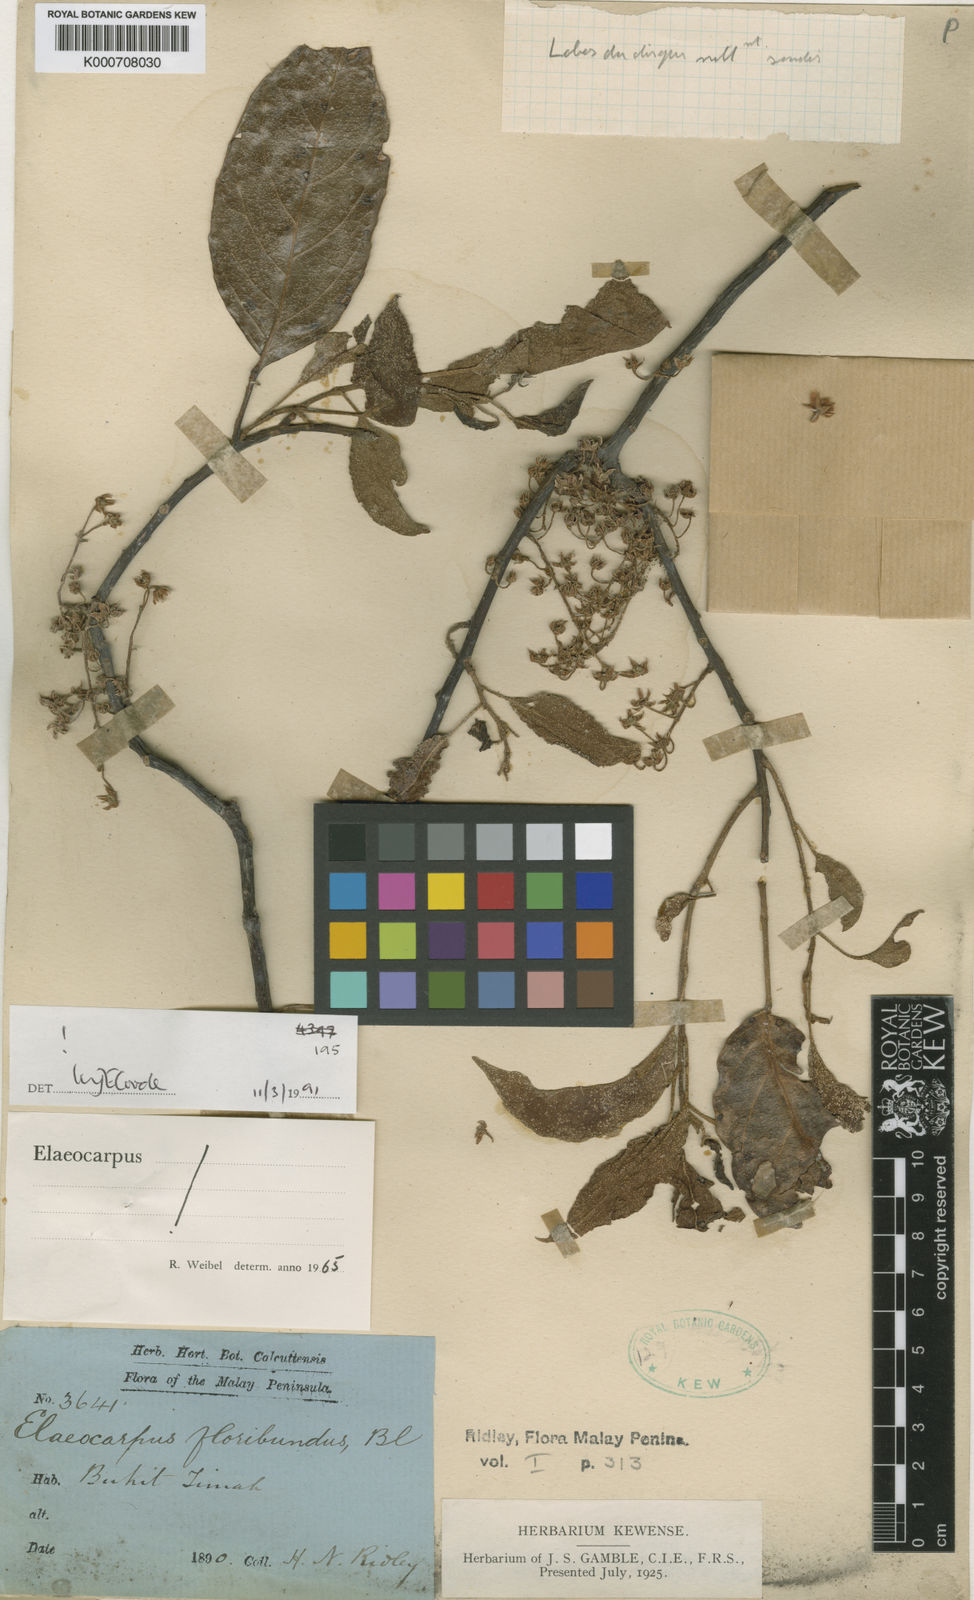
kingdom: Plantae
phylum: Tracheophyta
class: Magnoliopsida
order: Oxalidales
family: Elaeocarpaceae
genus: Elaeocarpus
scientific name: Elaeocarpus floribundus
